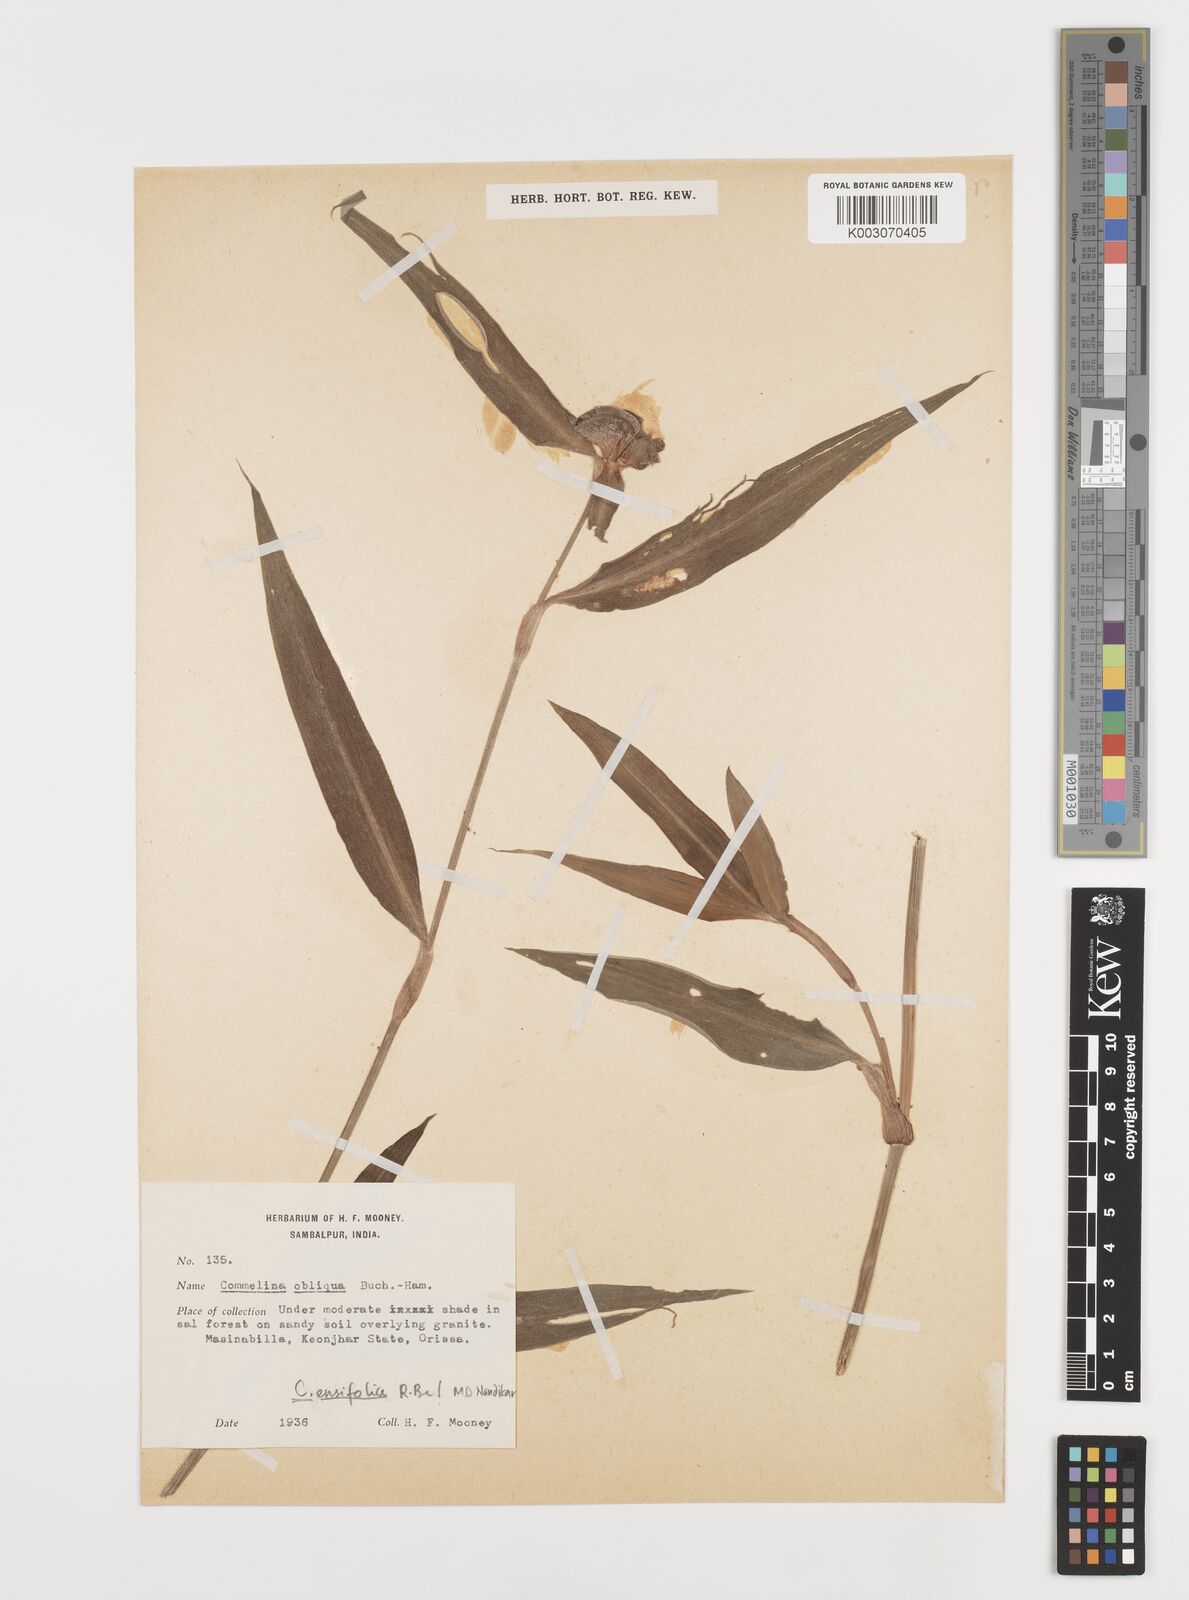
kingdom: Plantae
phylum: Tracheophyta
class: Liliopsida
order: Commelinales
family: Commelinaceae
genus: Commelina
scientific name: Commelina ensifolia
